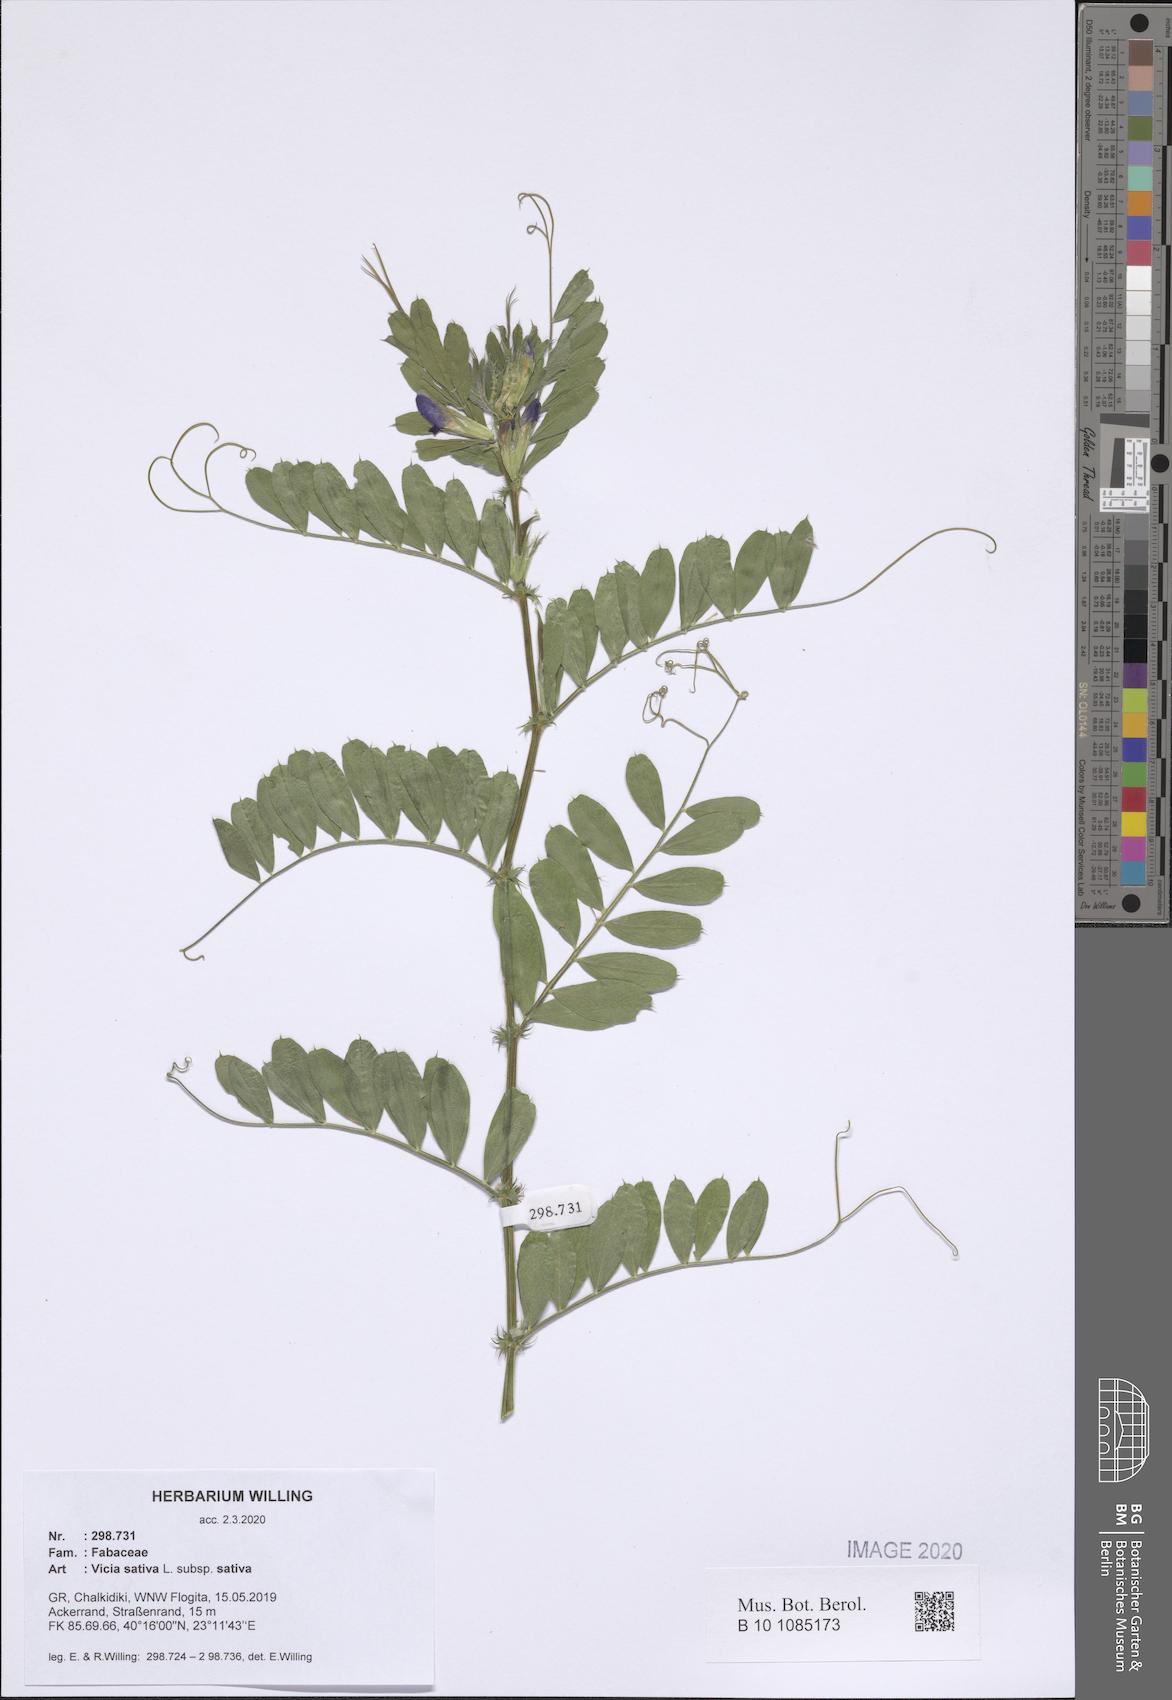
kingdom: Plantae
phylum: Tracheophyta
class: Magnoliopsida
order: Fabales
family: Fabaceae
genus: Vicia
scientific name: Vicia sativa
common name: Garden vetch
